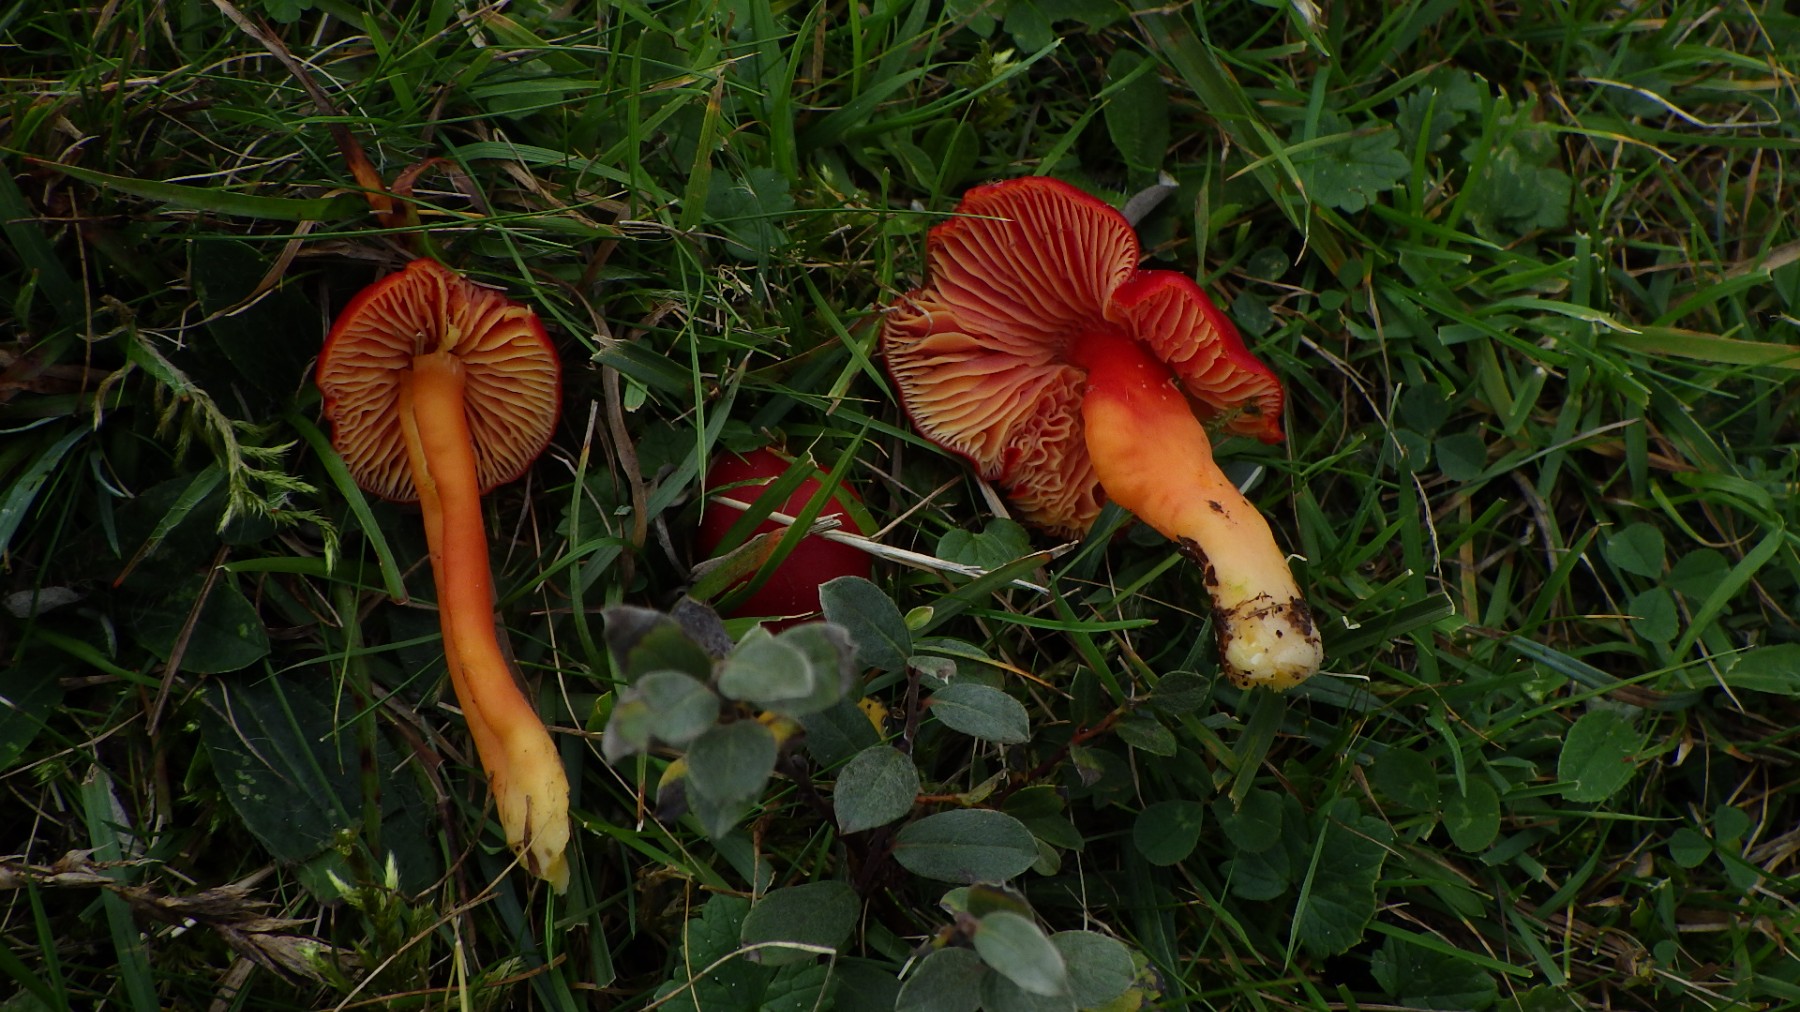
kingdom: Fungi
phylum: Basidiomycota
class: Agaricomycetes
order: Agaricales
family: Hygrophoraceae
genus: Hygrocybe
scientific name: Hygrocybe coccinea
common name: cinnober-vokshat
